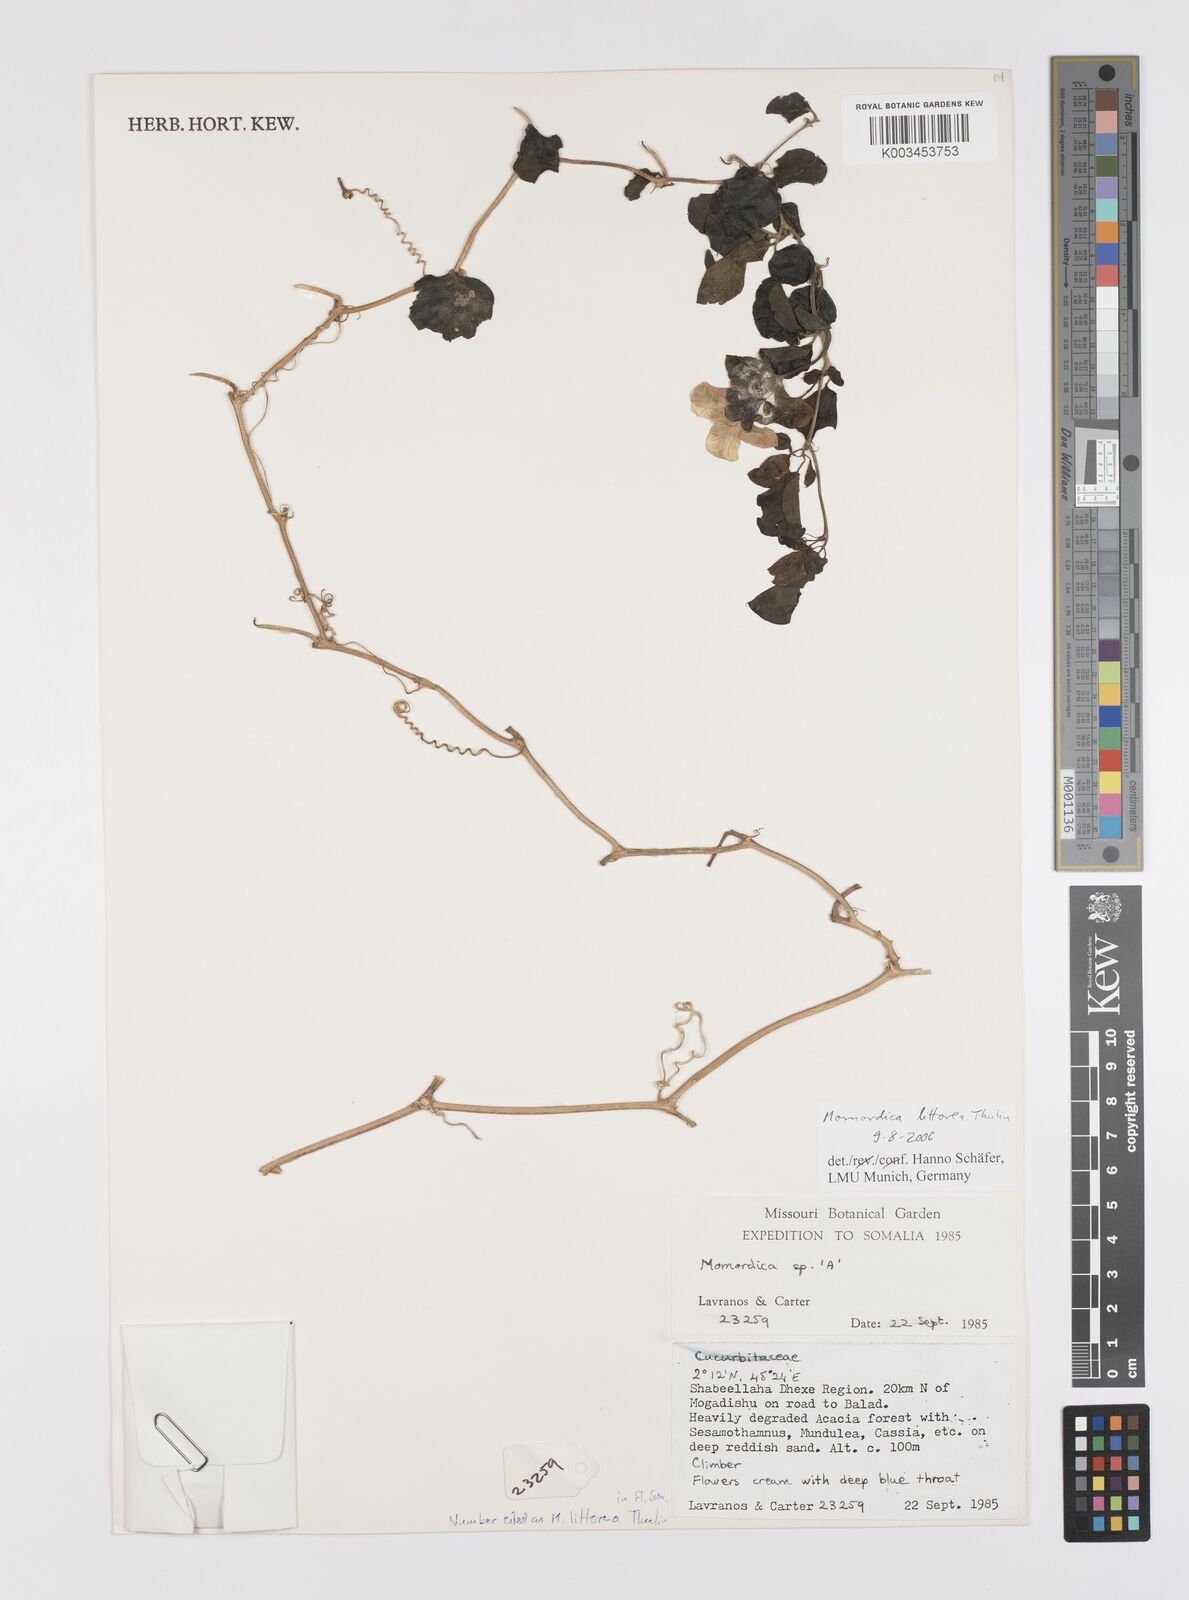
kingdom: Plantae
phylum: Tracheophyta
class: Magnoliopsida
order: Cucurbitales
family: Cucurbitaceae
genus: Momordica
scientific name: Momordica littorea
